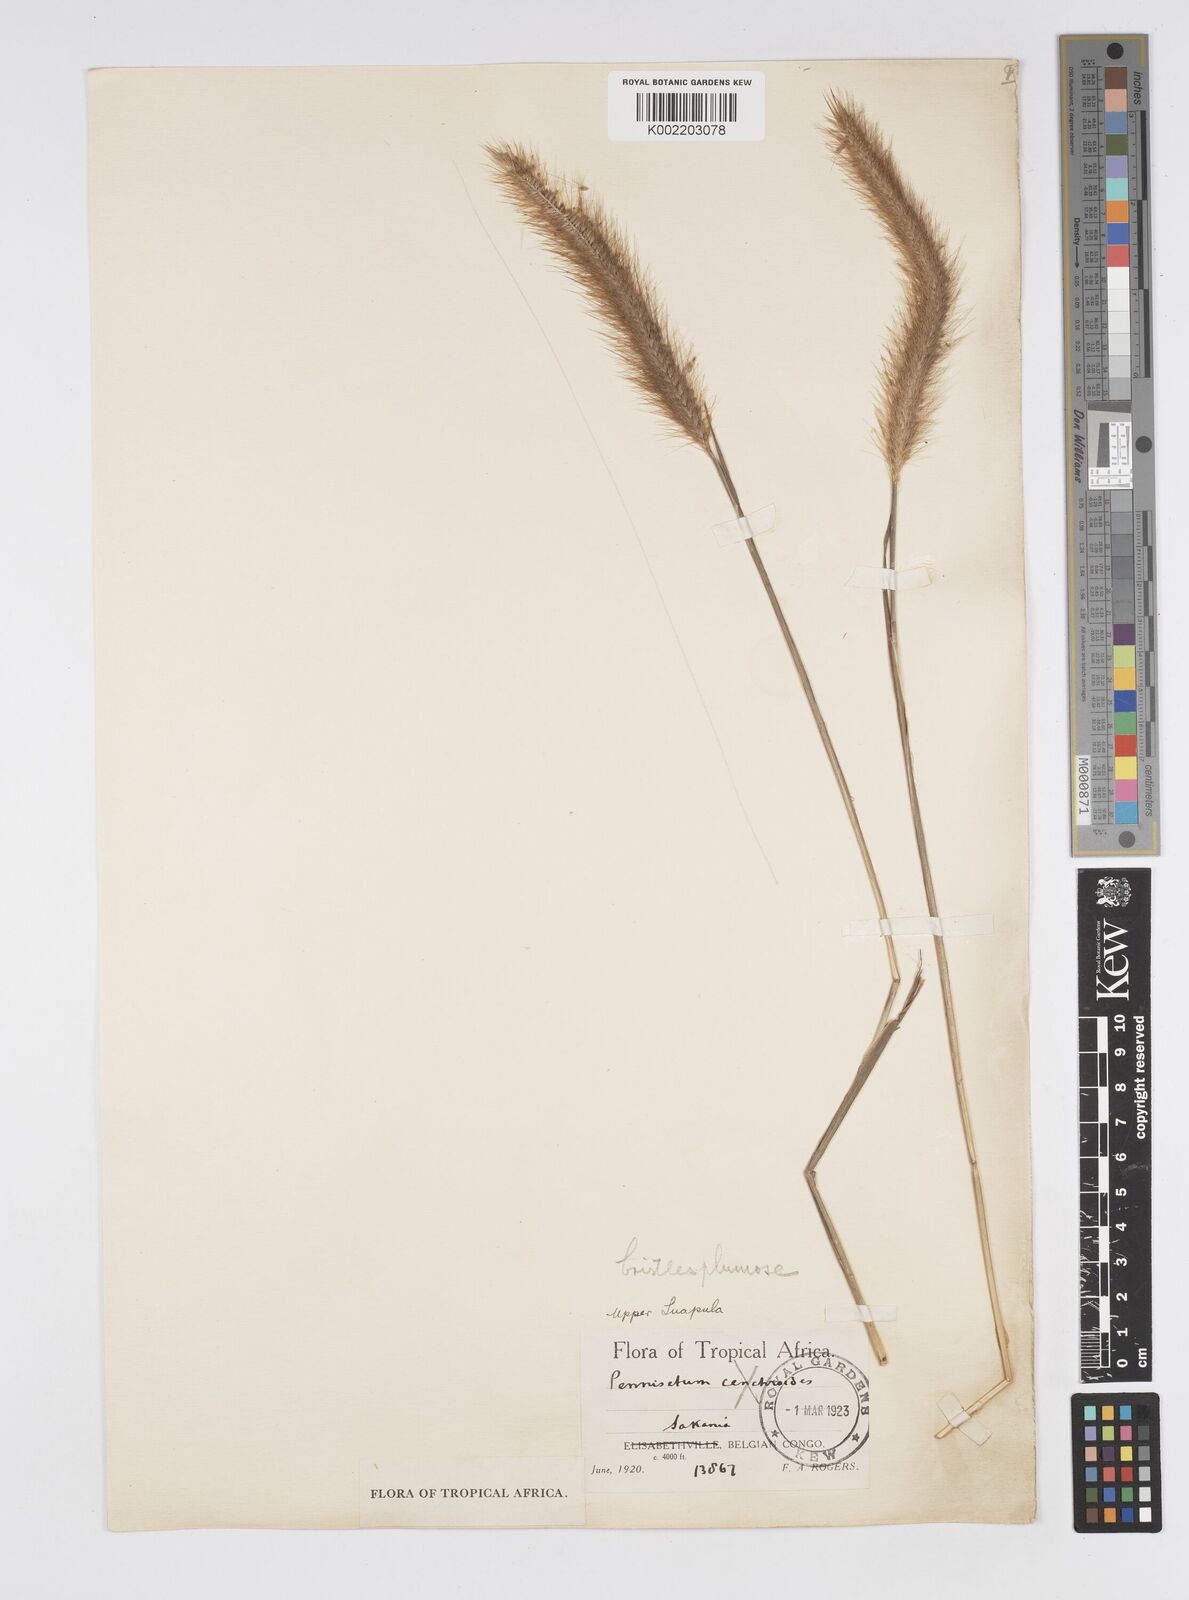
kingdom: Plantae
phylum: Tracheophyta
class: Liliopsida
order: Poales
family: Poaceae
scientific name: Poaceae
